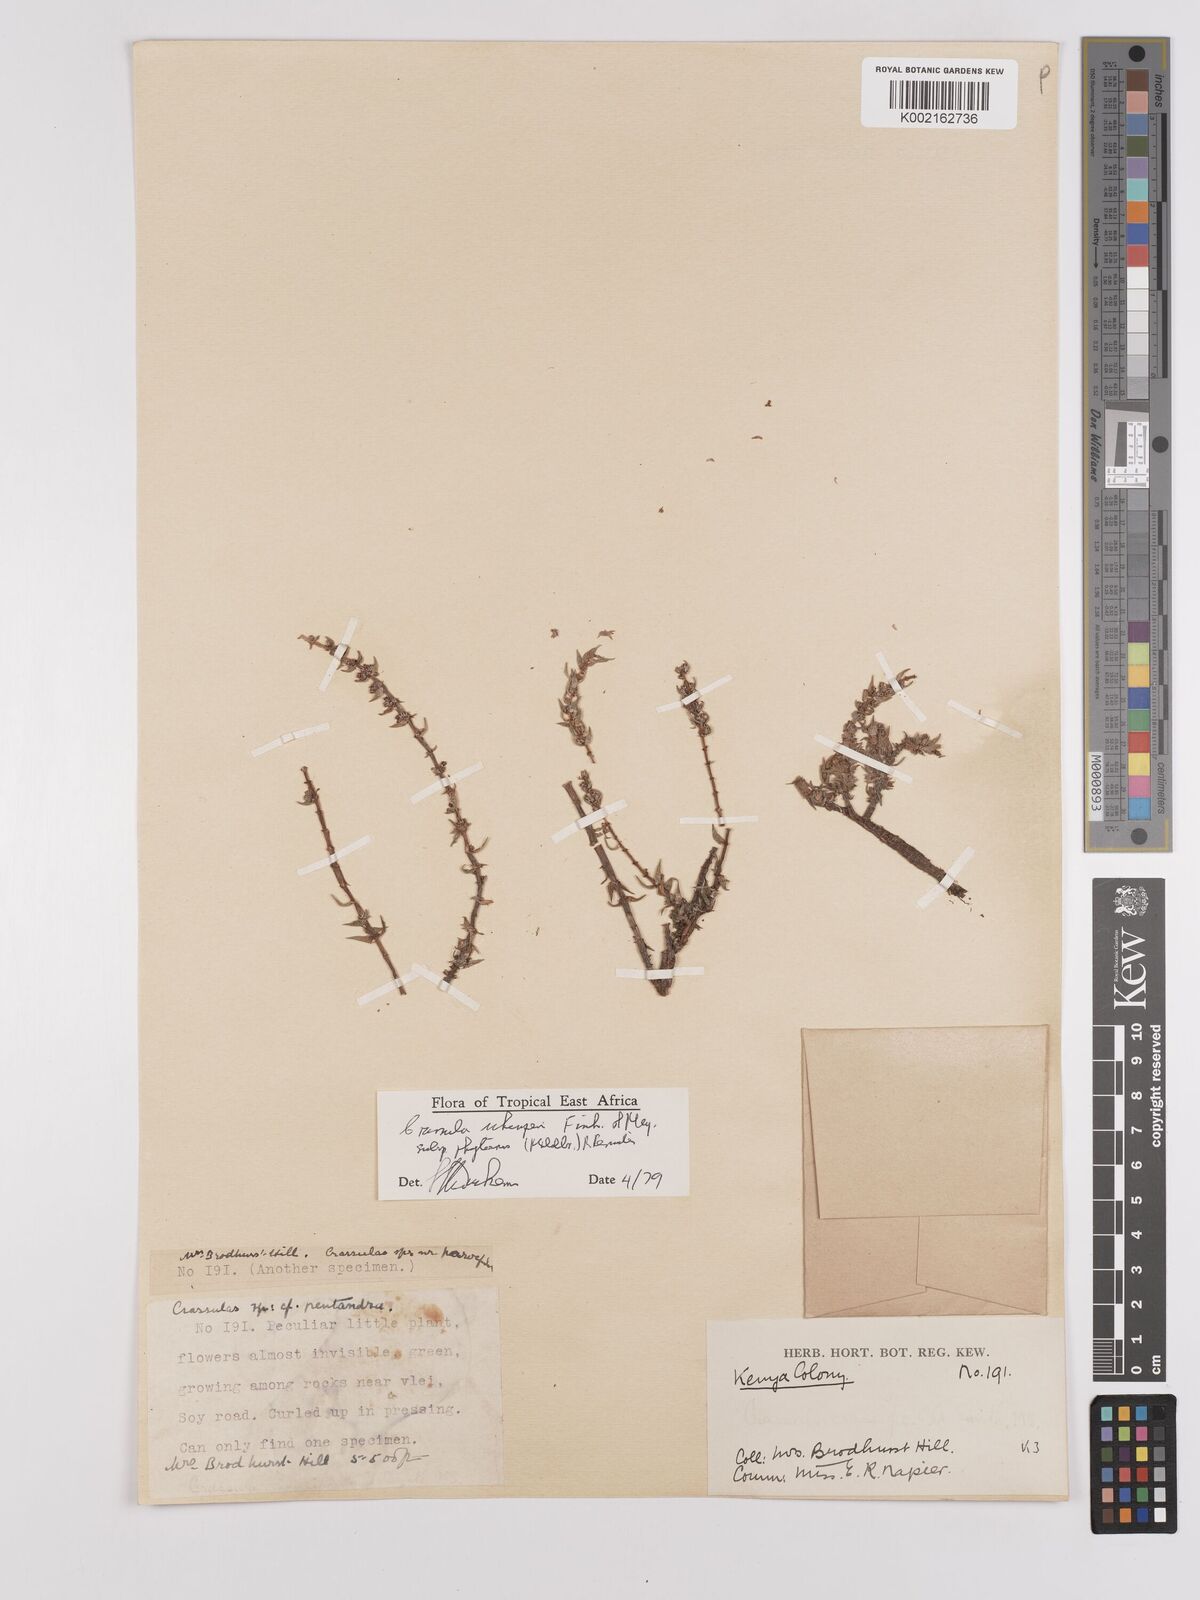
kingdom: Plantae
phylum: Tracheophyta
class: Magnoliopsida
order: Saxifragales
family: Crassulaceae
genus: Crassula
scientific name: Crassula schimperi
